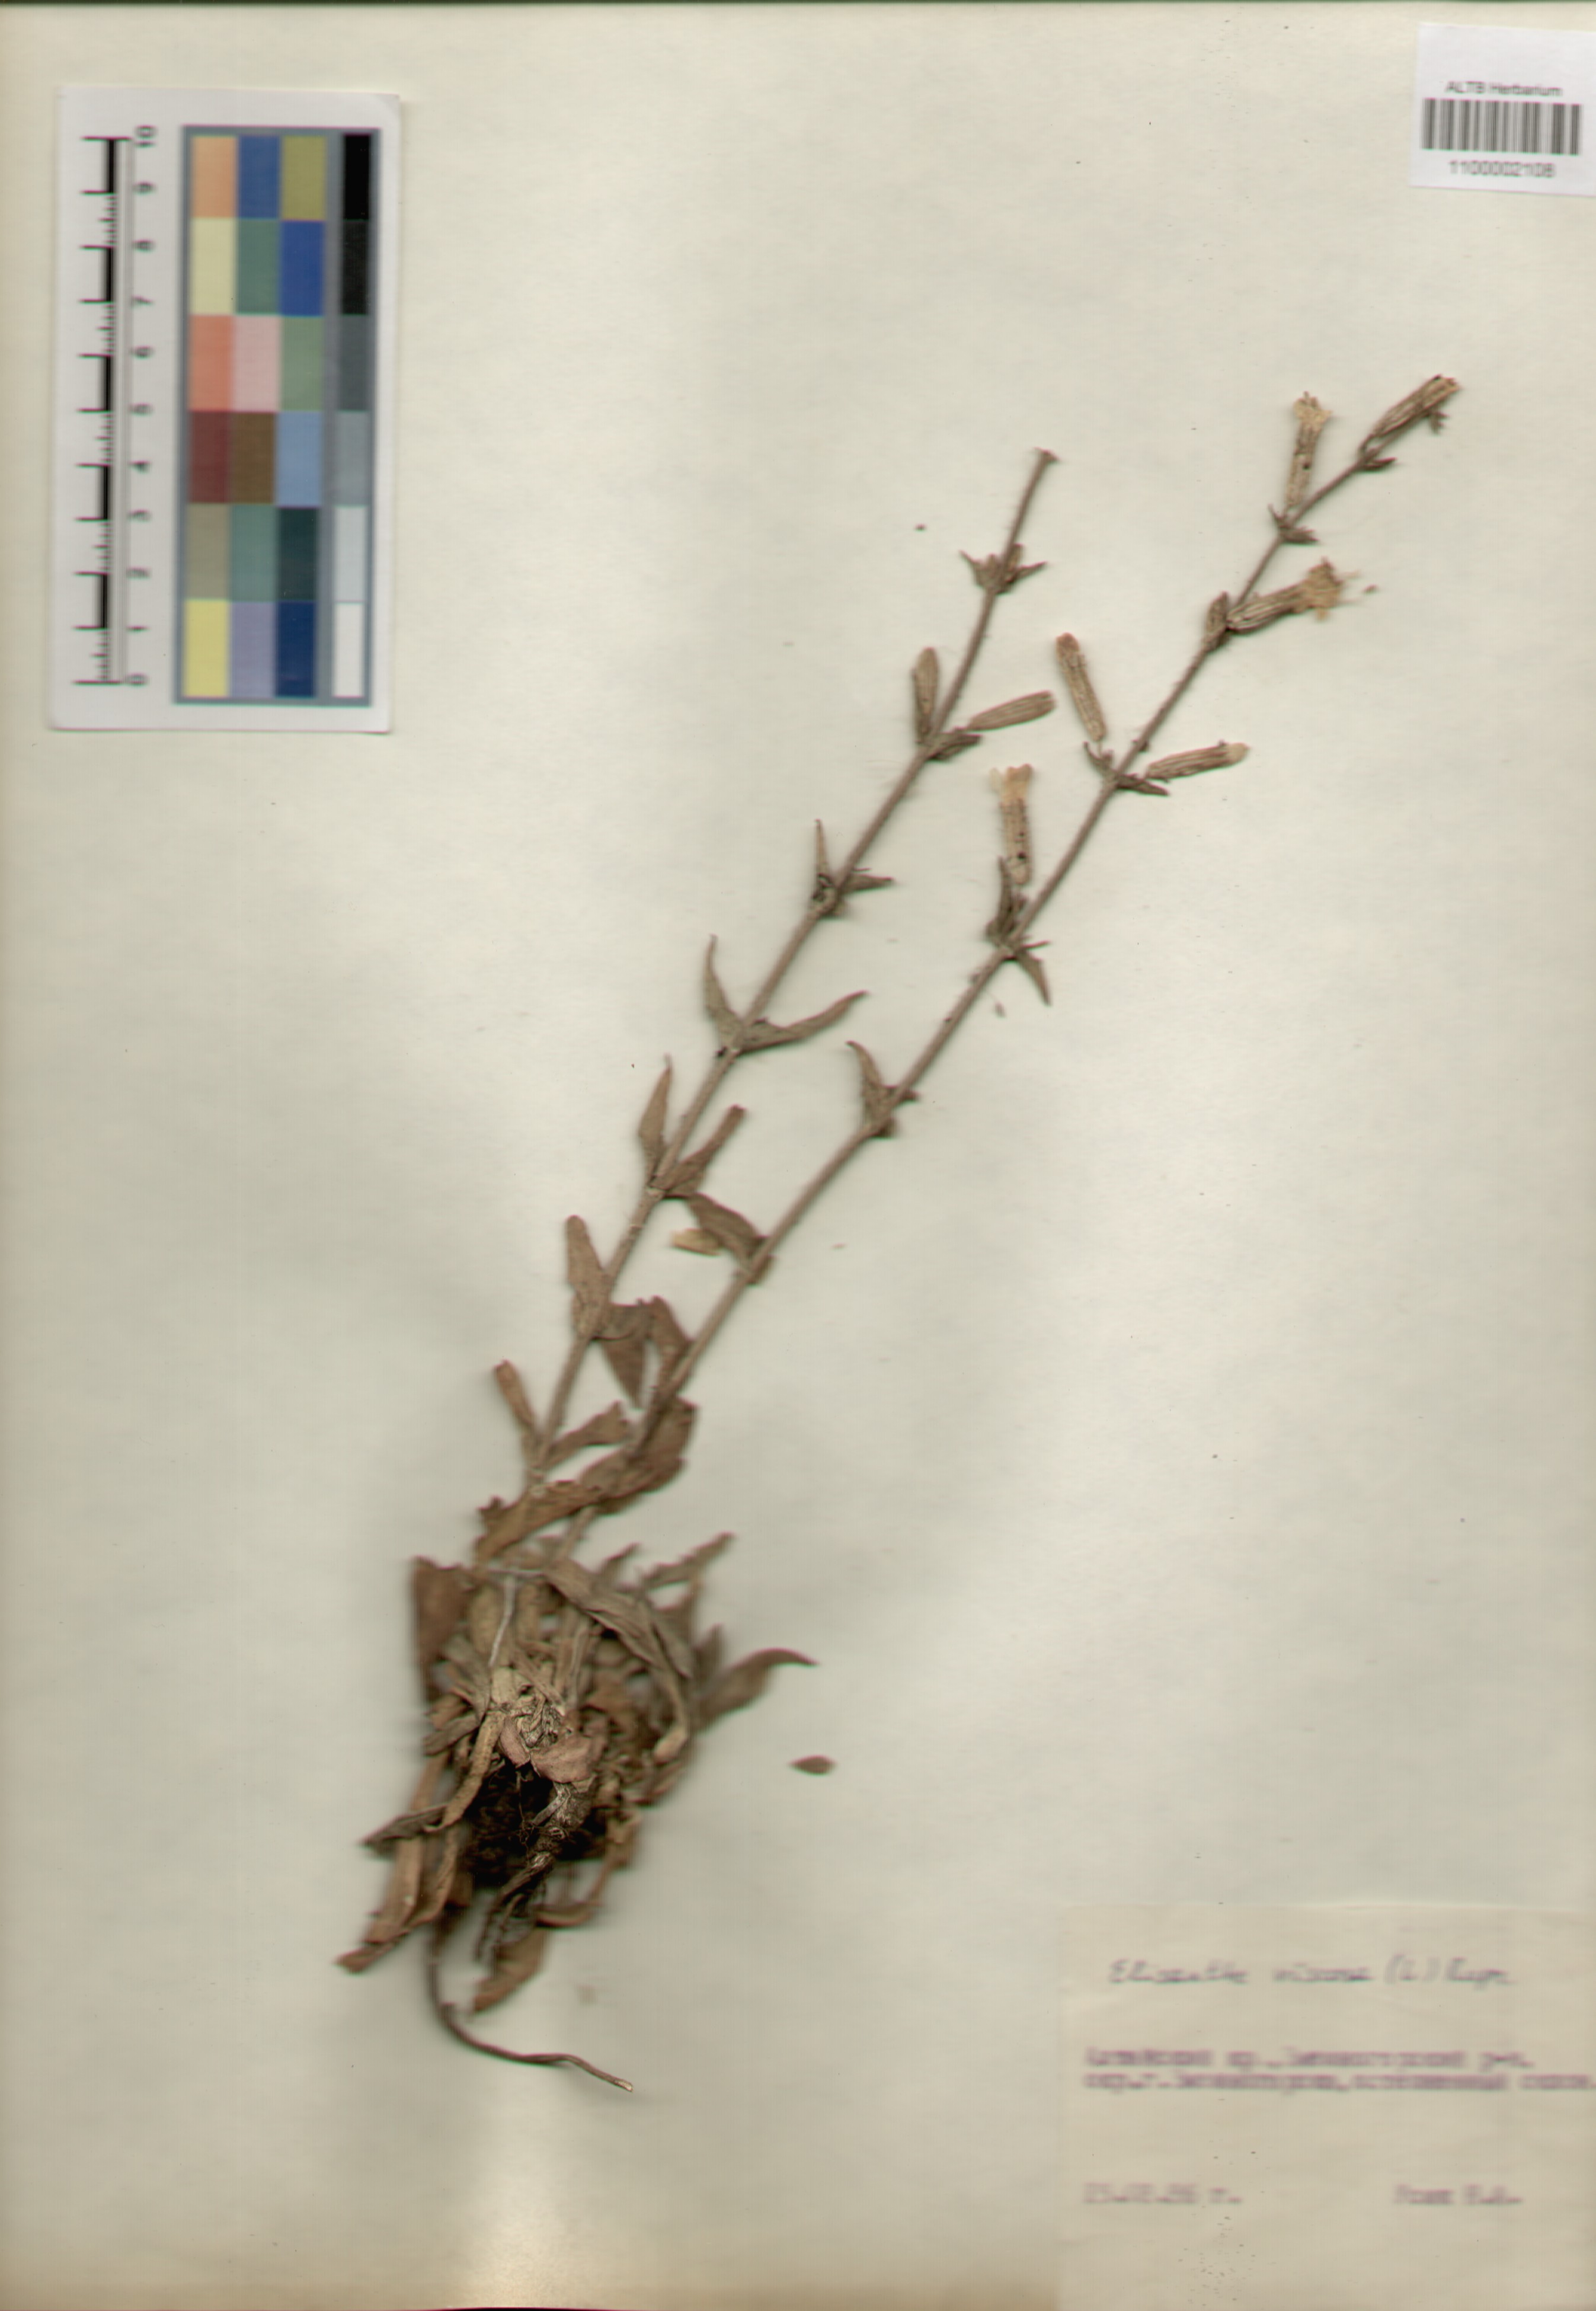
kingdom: Plantae
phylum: Tracheophyta
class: Magnoliopsida
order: Caryophyllales
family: Caryophyllaceae
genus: Silene
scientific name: Silene viscosa
